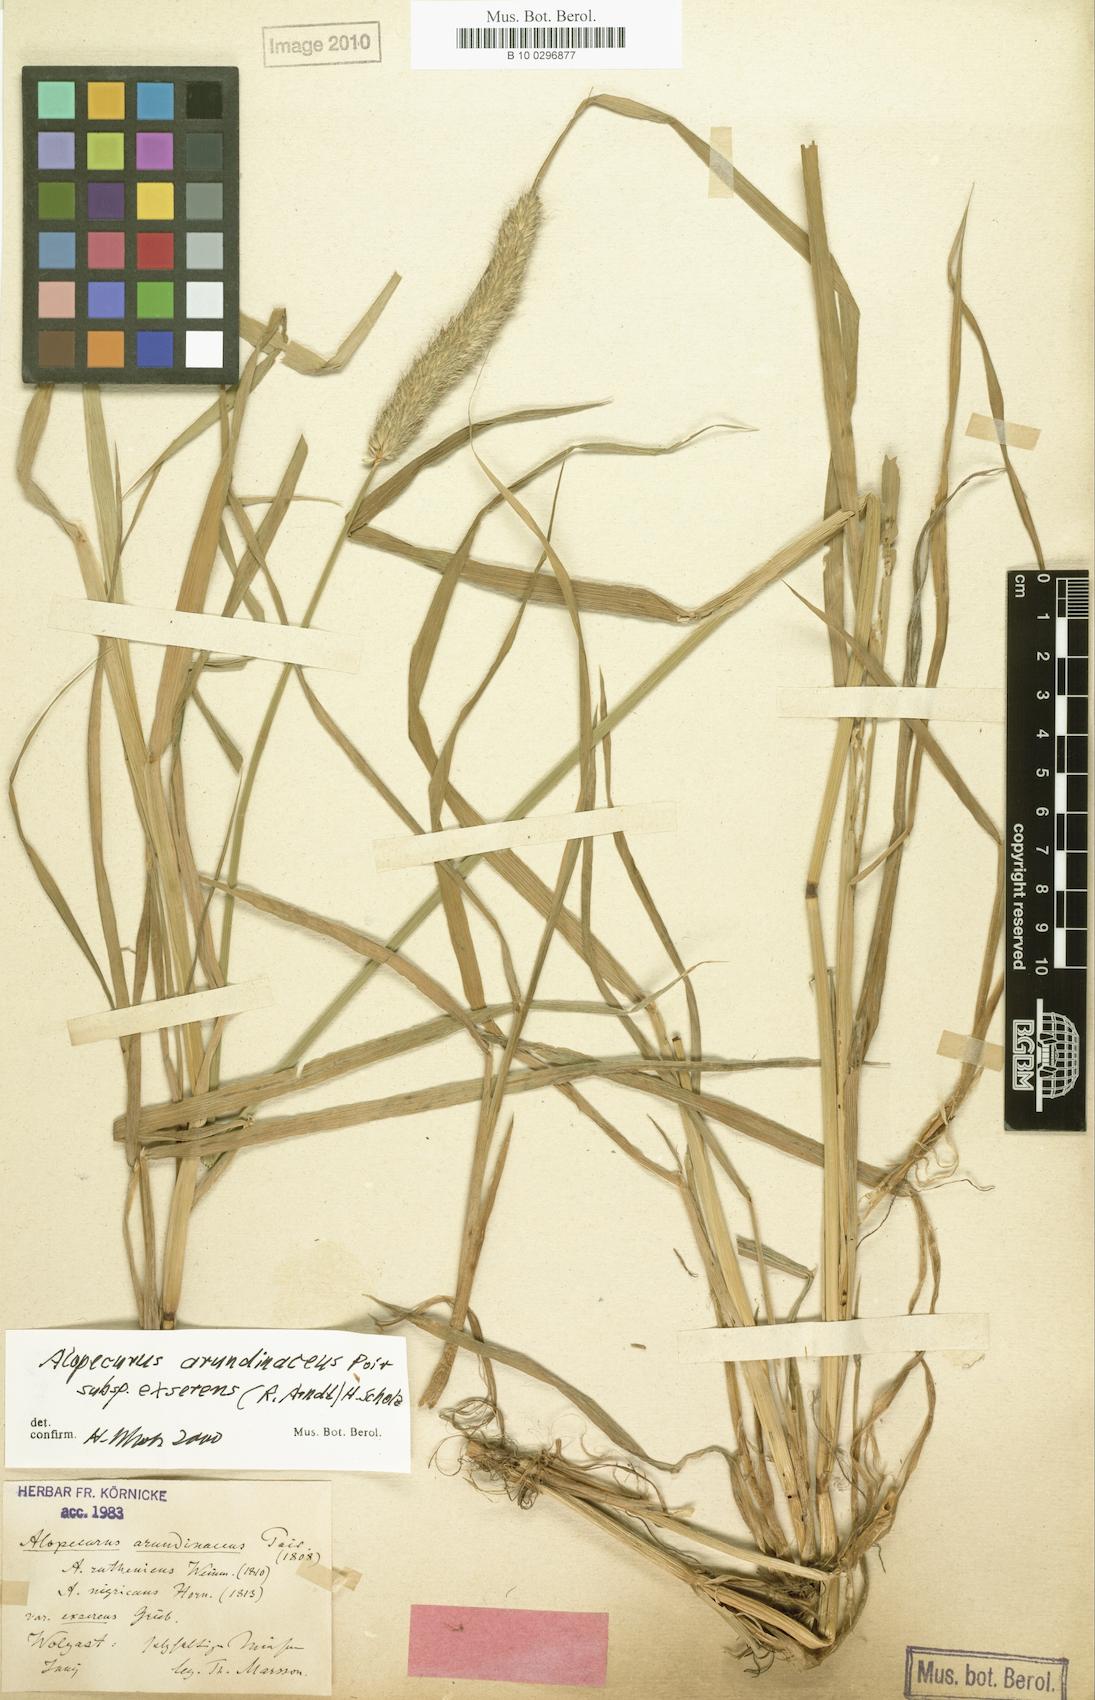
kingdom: Plantae
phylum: Tracheophyta
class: Liliopsida
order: Poales
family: Poaceae
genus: Alopecurus
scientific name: Alopecurus arundinaceus
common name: Creeping meadow foxtail
